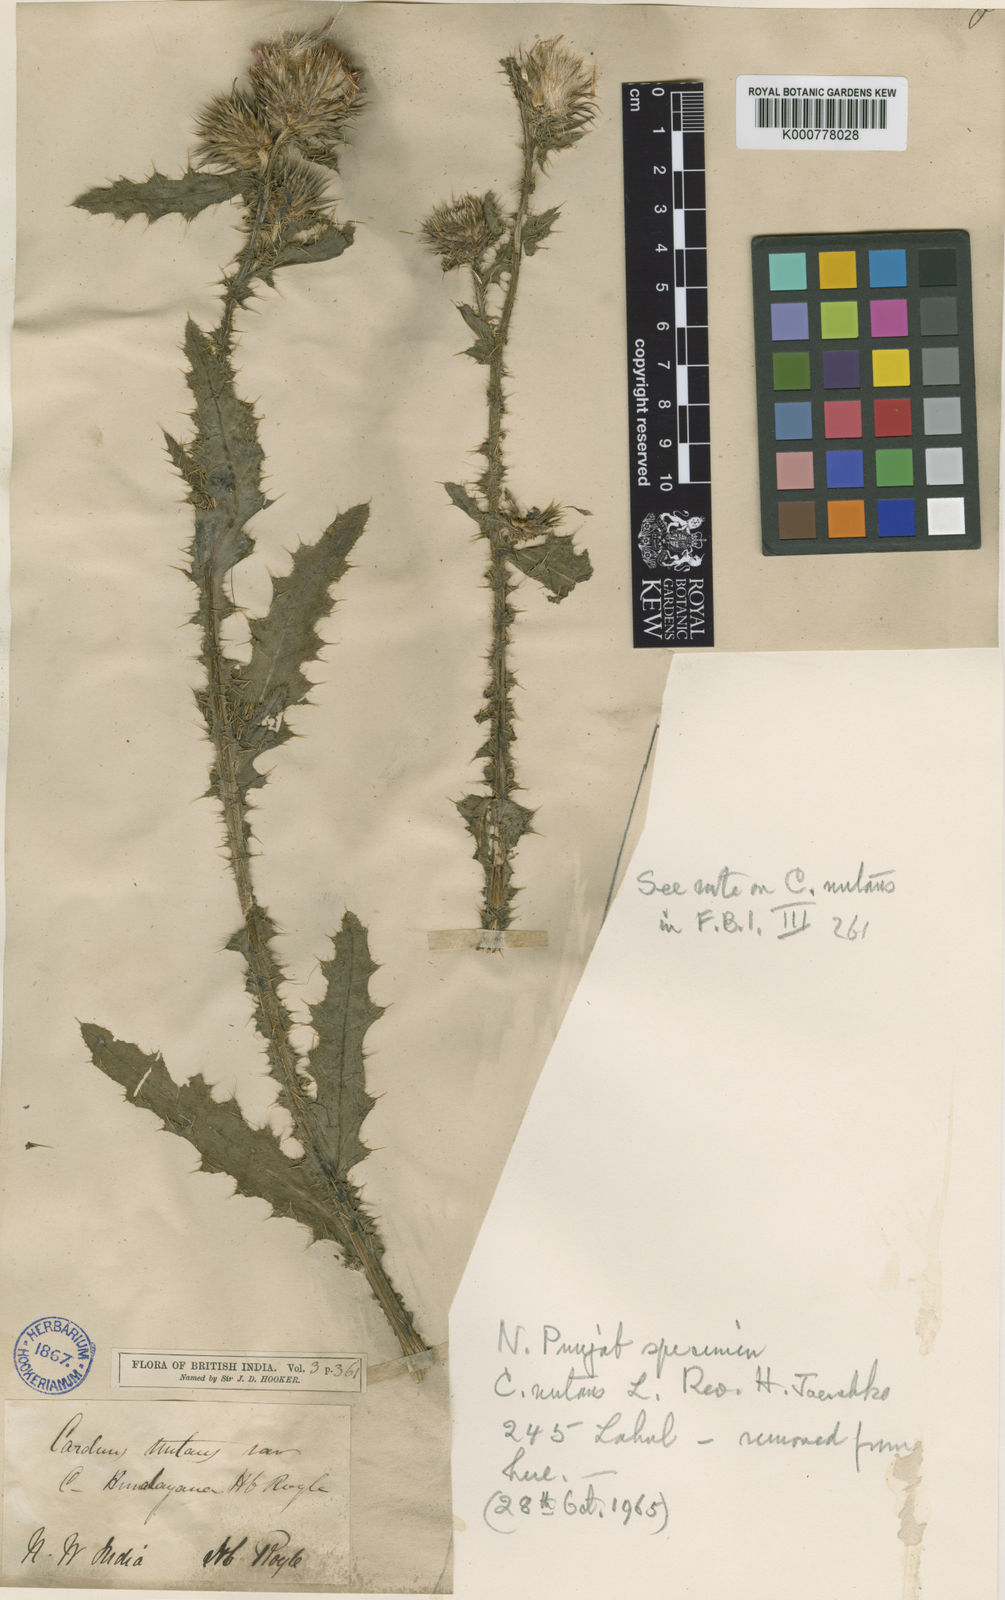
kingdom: Plantae
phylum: Tracheophyta
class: Magnoliopsida
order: Asterales
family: Asteraceae
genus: Carduus
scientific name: Carduus nutans
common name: Musk thistle
